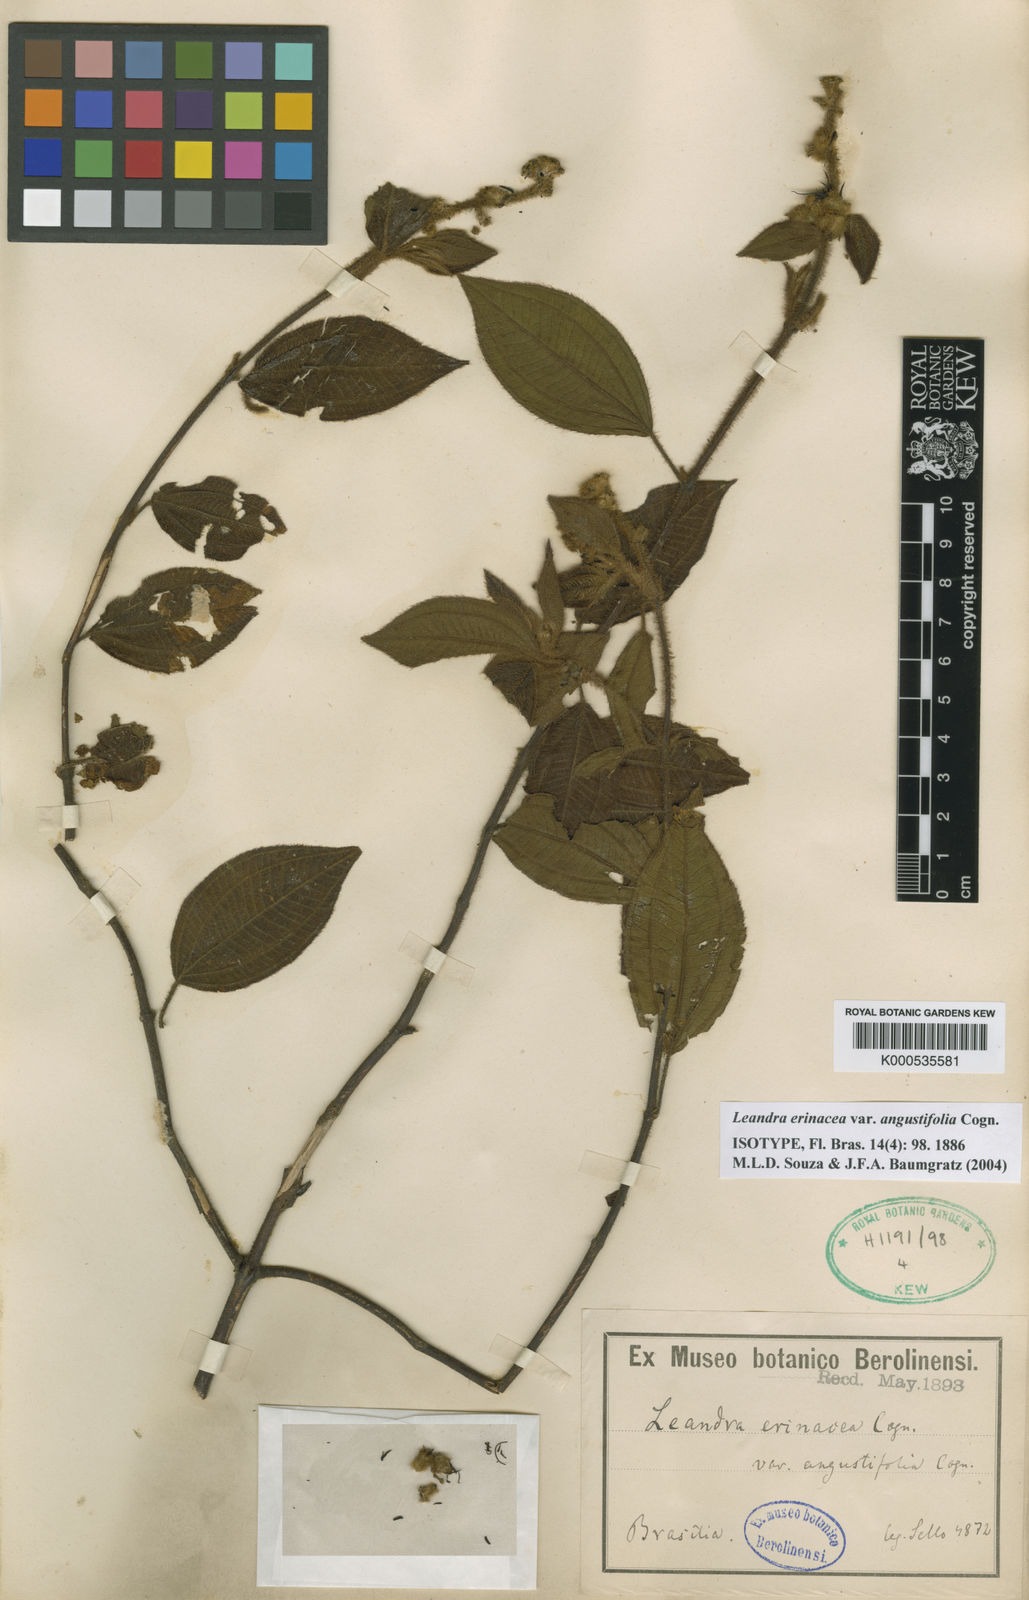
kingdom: Plantae
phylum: Tracheophyta
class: Magnoliopsida
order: Myrtales
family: Melastomataceae
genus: Miconia
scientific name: Miconia xanthocoma
